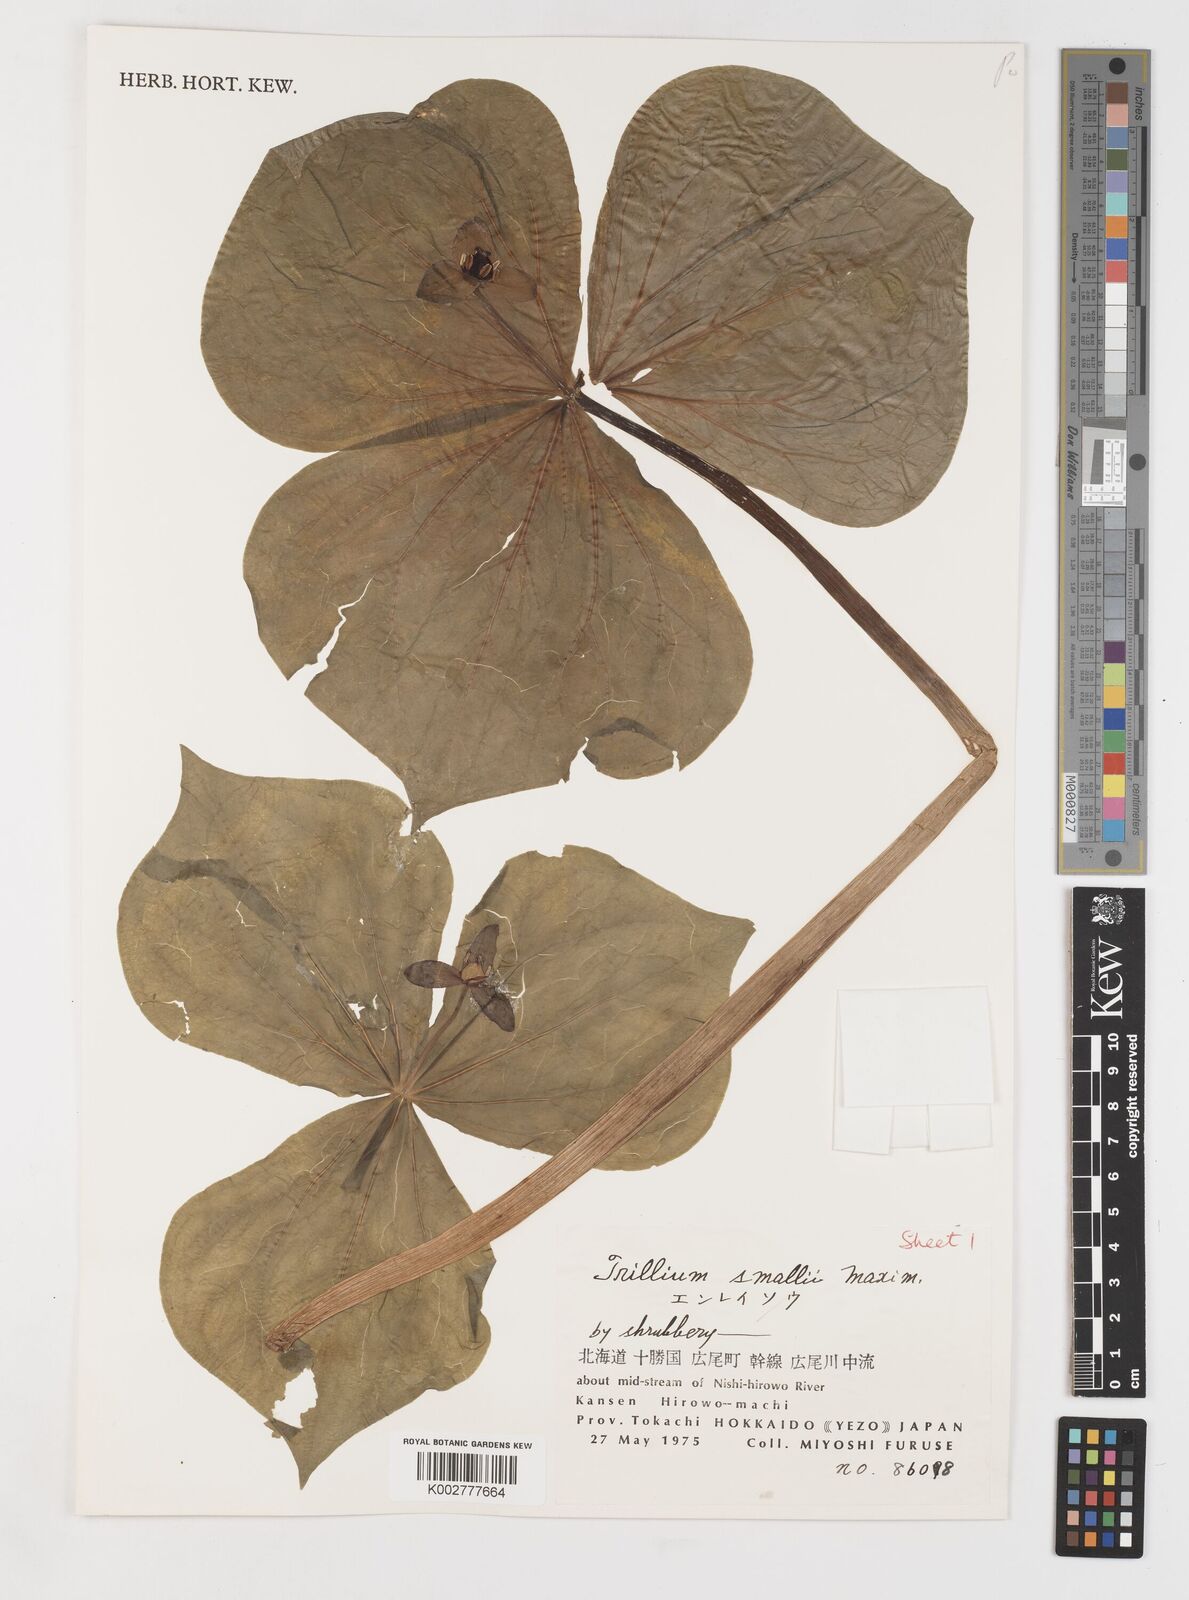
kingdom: Plantae
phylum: Tracheophyta
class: Liliopsida
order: Liliales
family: Melanthiaceae
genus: Trillium
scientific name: Trillium smallii
